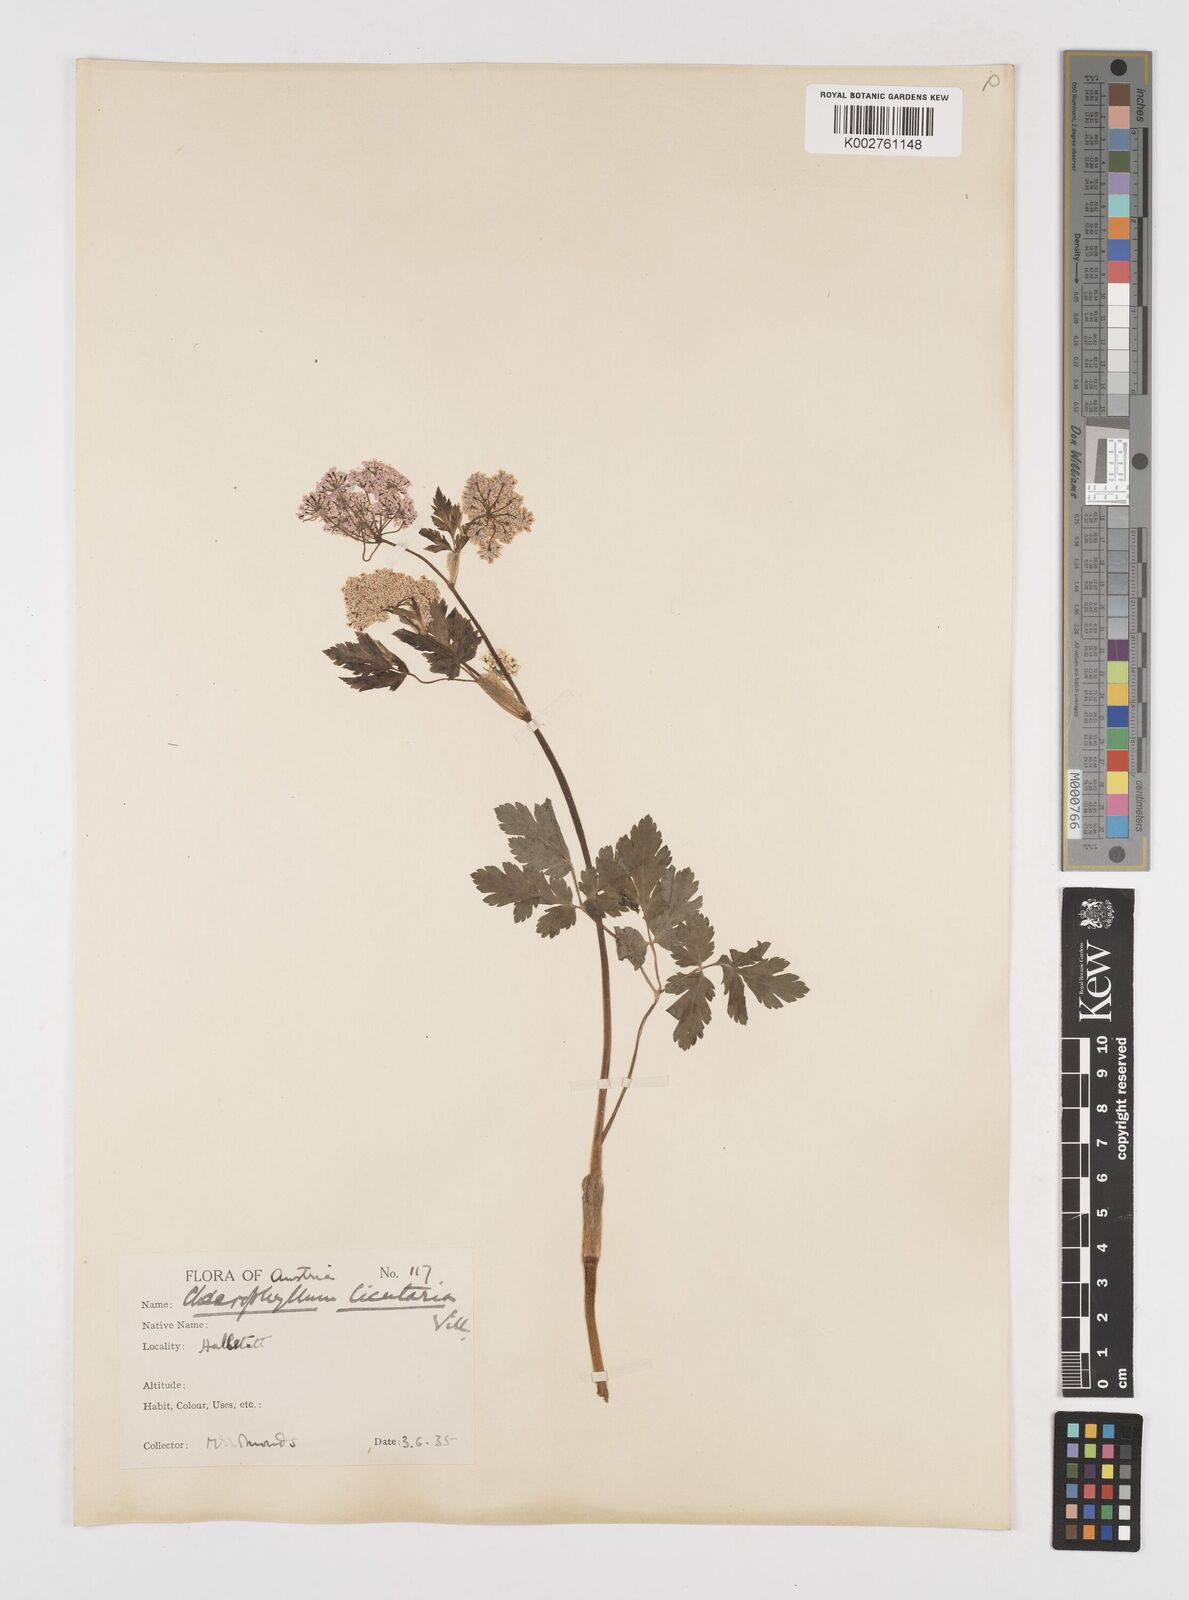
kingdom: Plantae
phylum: Tracheophyta
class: Magnoliopsida
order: Apiales
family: Apiaceae
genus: Chaerophyllum
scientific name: Chaerophyllum hirsutum
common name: Hairy chervil
